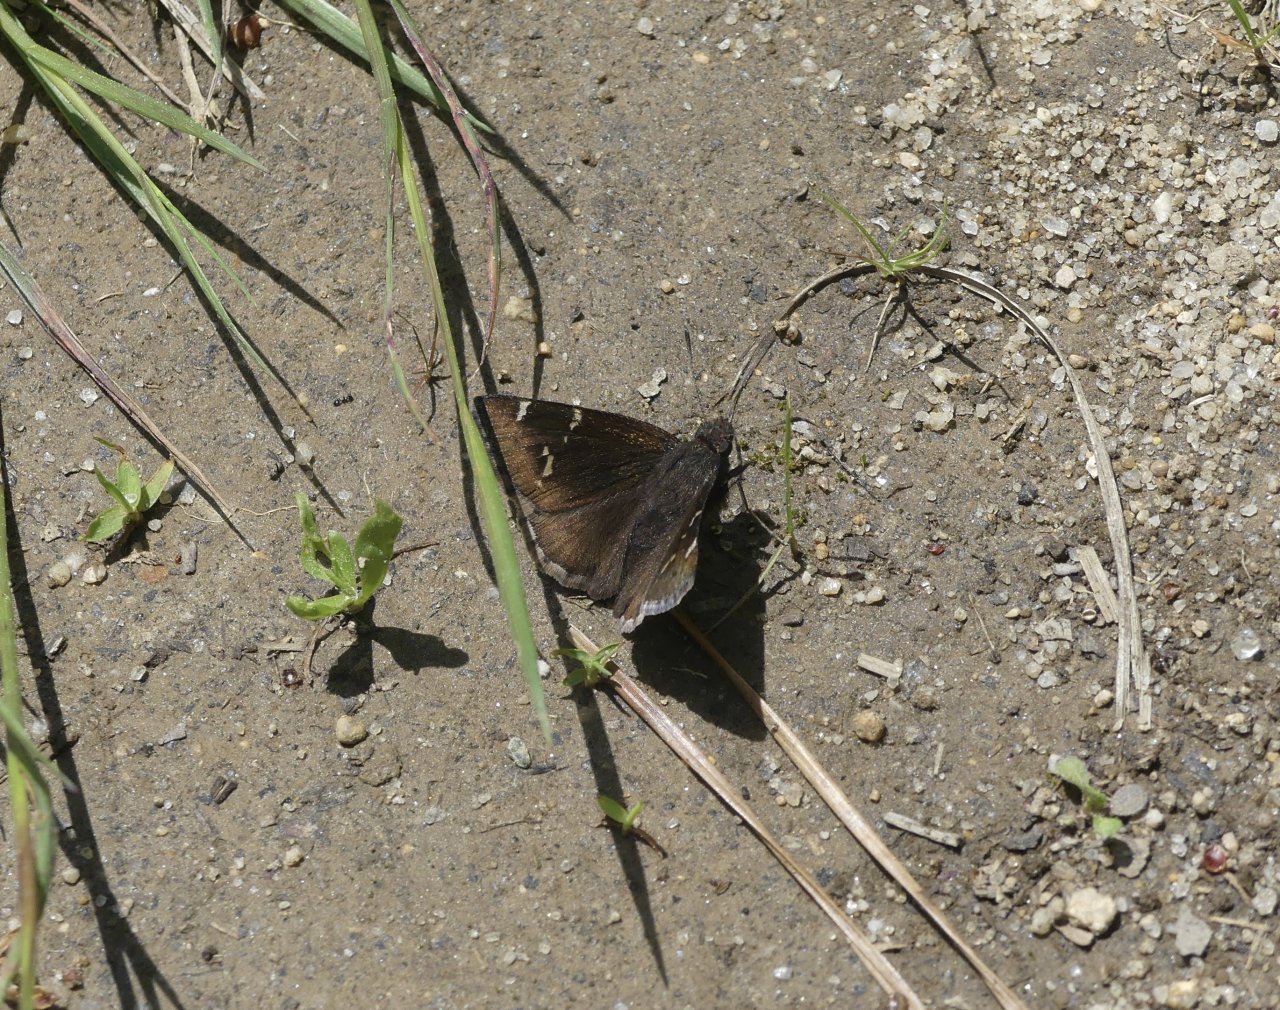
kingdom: Animalia
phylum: Arthropoda
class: Insecta
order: Lepidoptera
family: Hesperiidae
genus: Autochton
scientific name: Autochton
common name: Southern Cloudywing
